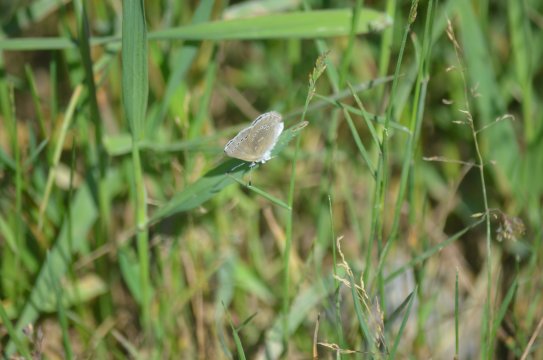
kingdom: Animalia
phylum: Arthropoda
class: Insecta
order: Lepidoptera
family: Lycaenidae
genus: Glaucopsyche
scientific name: Glaucopsyche lygdamus
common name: Silvery Blue
